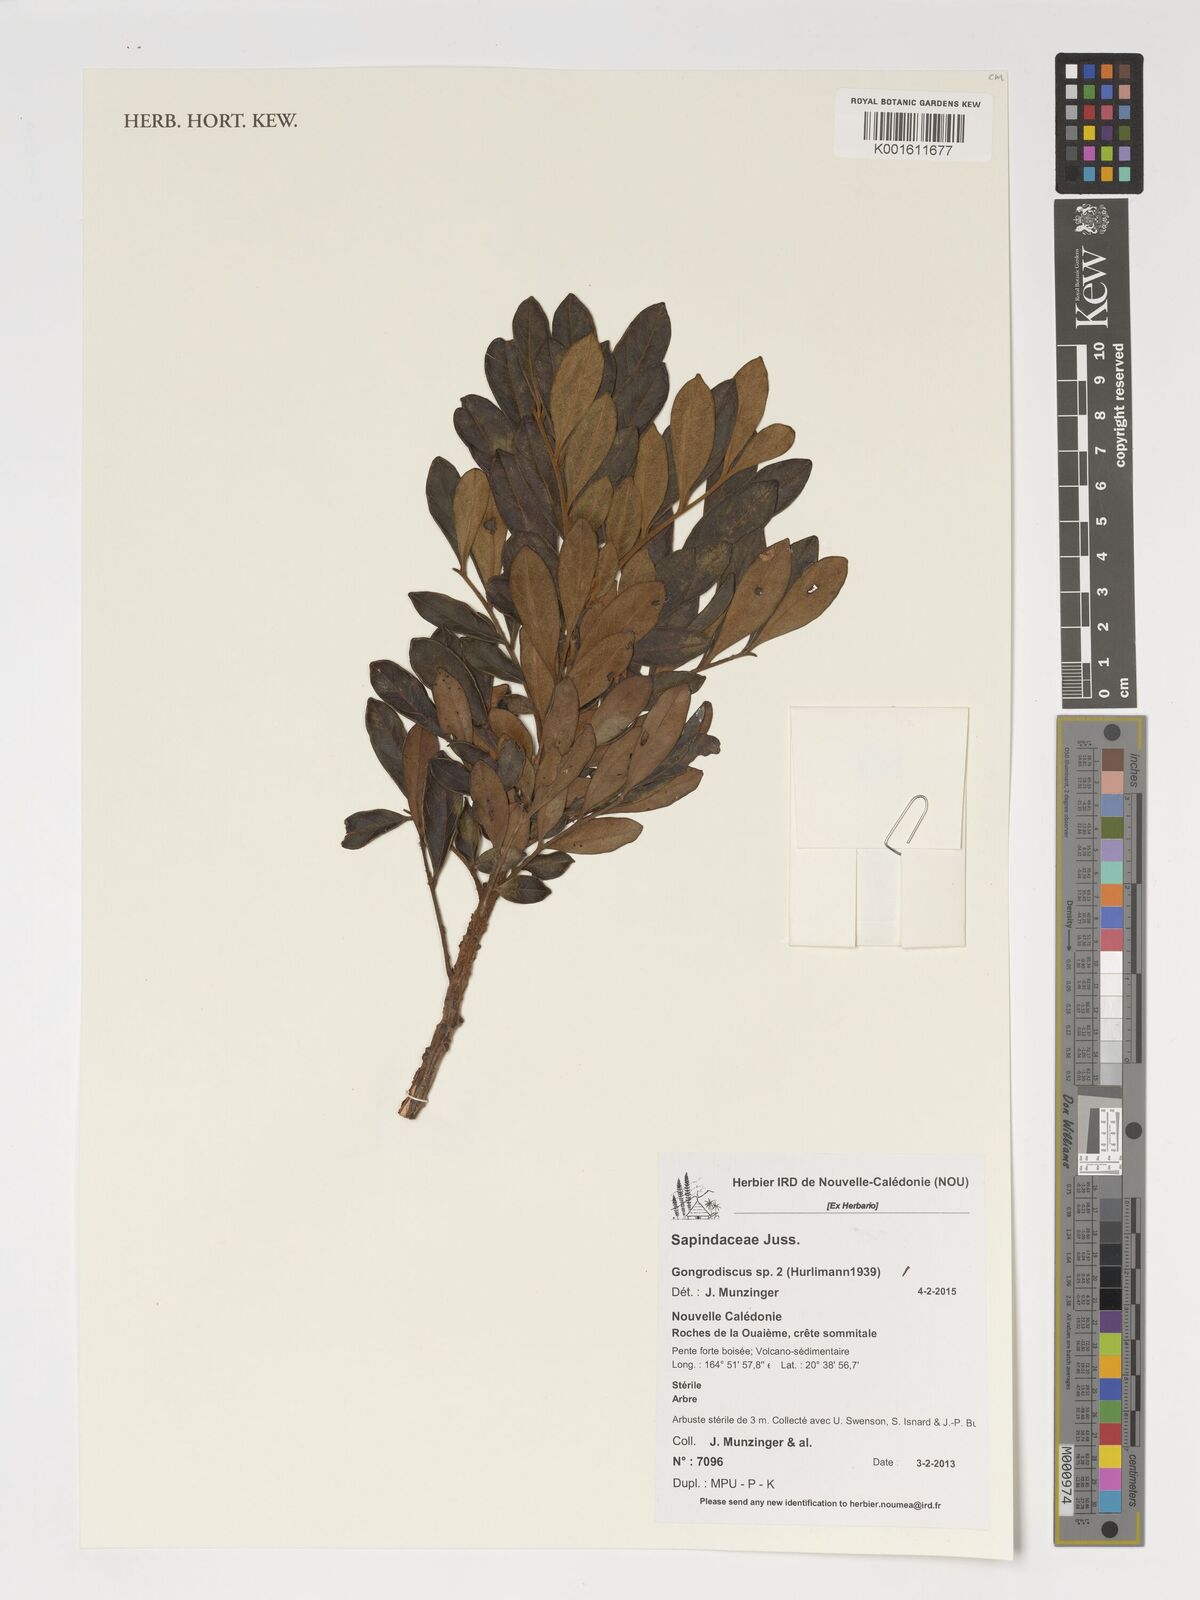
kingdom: Plantae
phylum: Tracheophyta
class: Magnoliopsida
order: Sapindales
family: Sapindaceae
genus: Gongrodiscus
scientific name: Gongrodiscus
